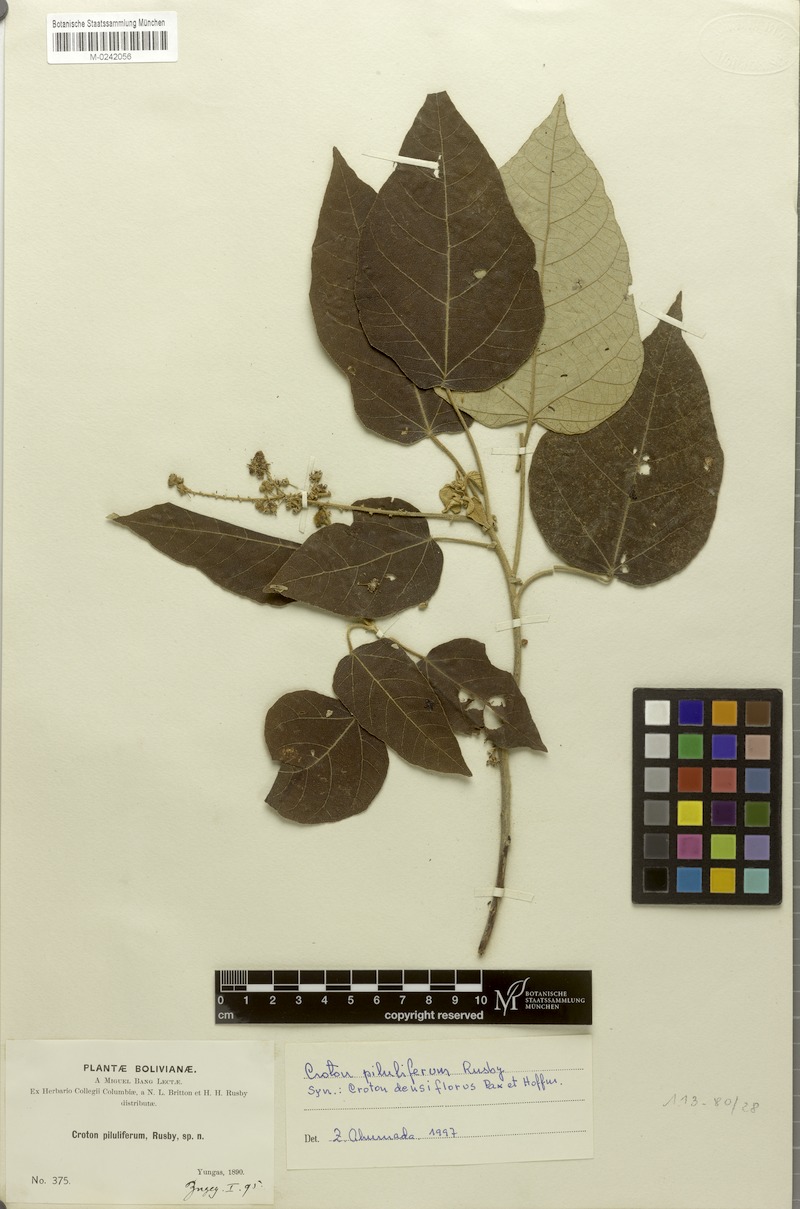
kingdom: Plantae
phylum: Tracheophyta
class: Magnoliopsida
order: Malpighiales
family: Euphorbiaceae
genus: Croton
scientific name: Croton pilulifer
